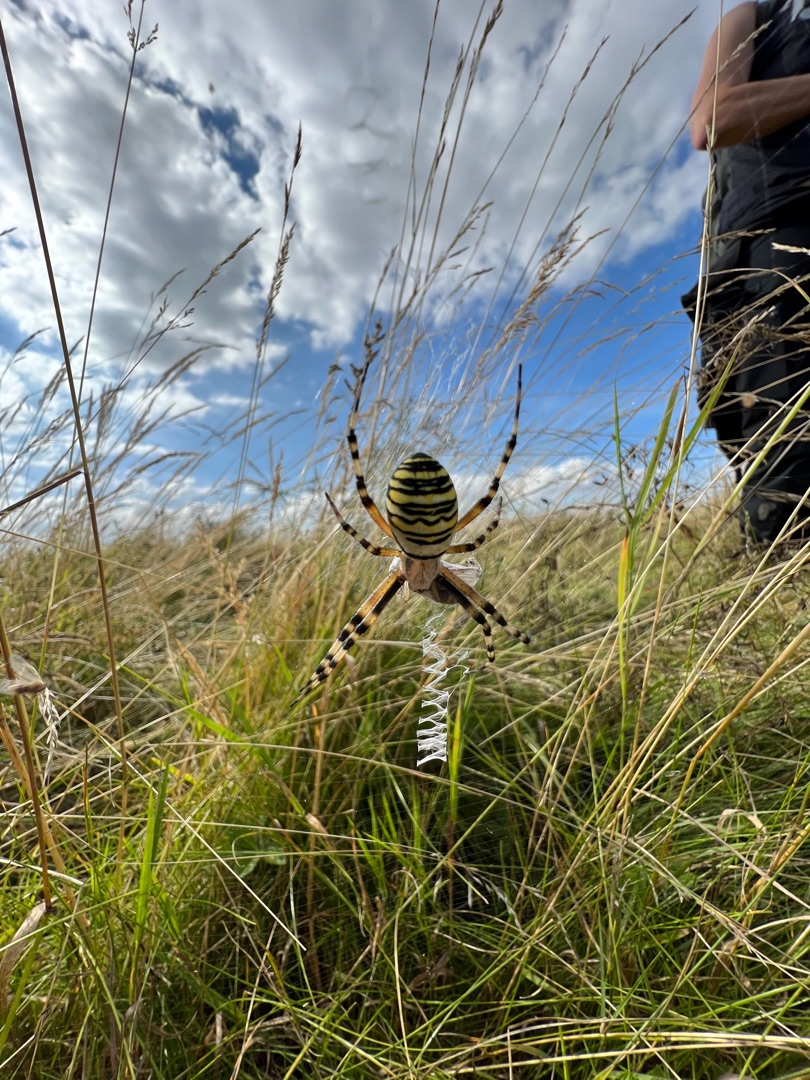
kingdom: Animalia
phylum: Arthropoda
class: Arachnida
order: Araneae
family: Araneidae
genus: Argiope
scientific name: Argiope bruennichi
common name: Hvepseedderkop
